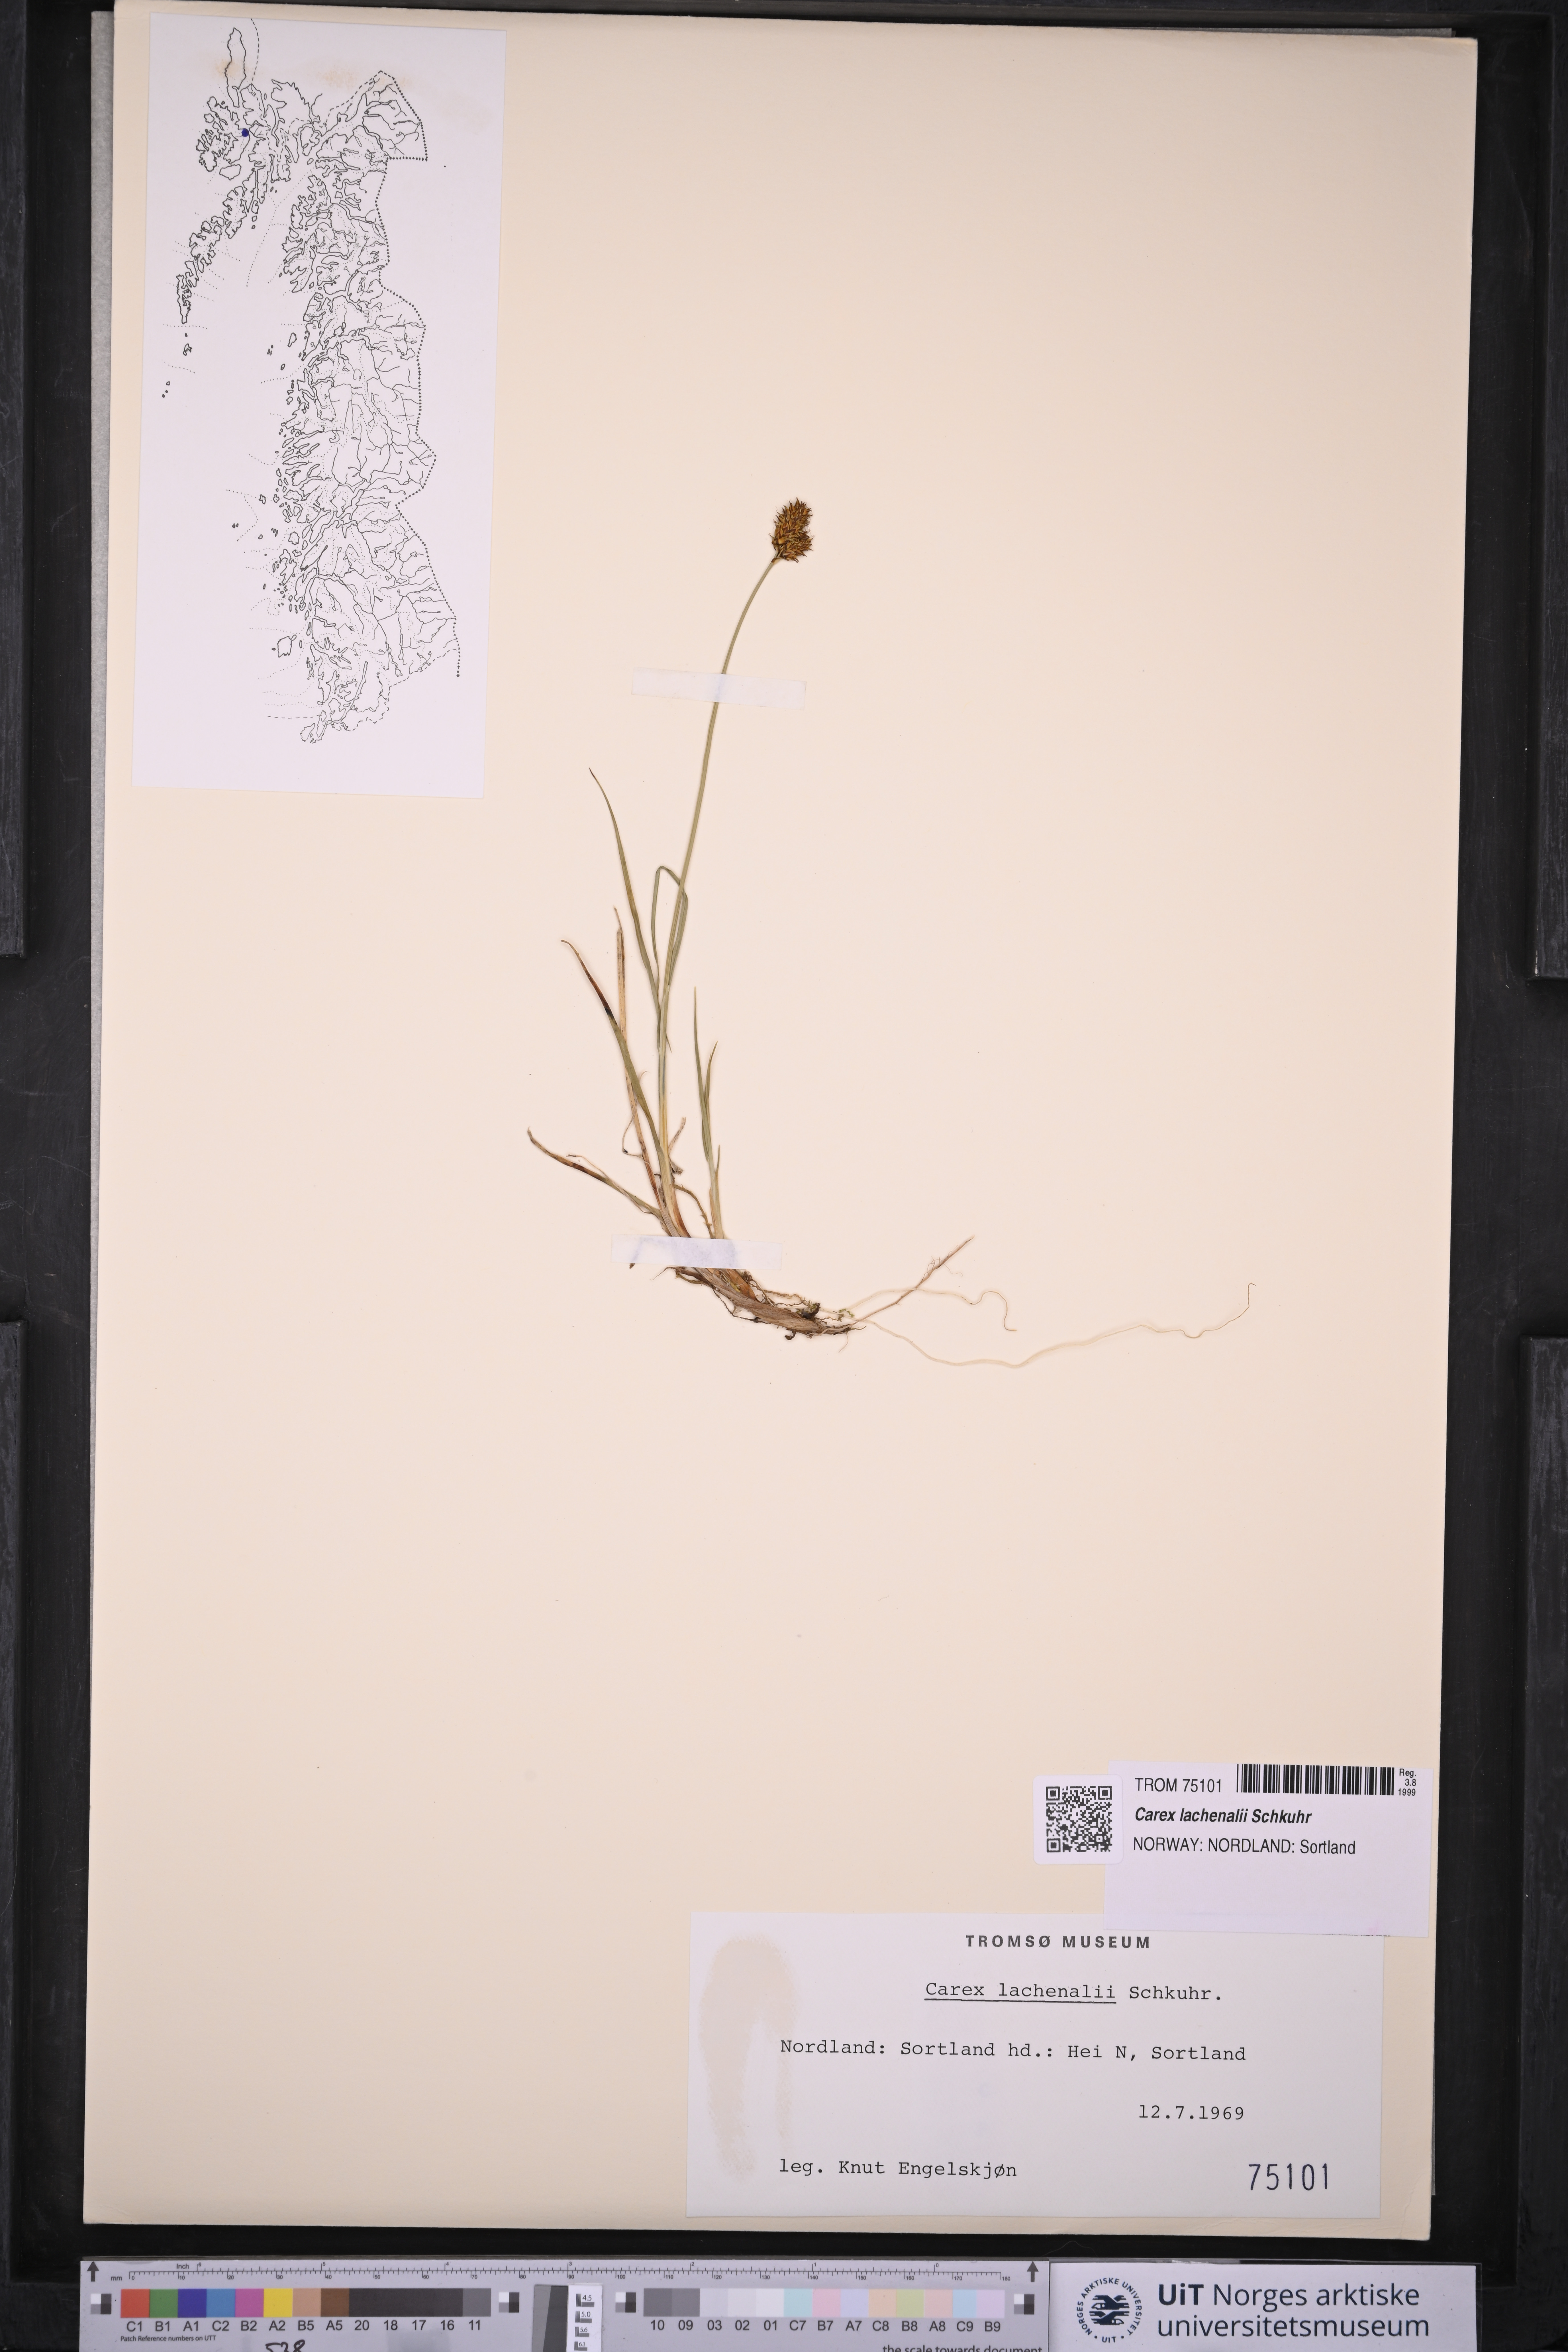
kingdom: Plantae
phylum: Tracheophyta
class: Liliopsida
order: Poales
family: Cyperaceae
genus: Carex
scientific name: Carex lachenalii
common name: Hare's-foot sedge
